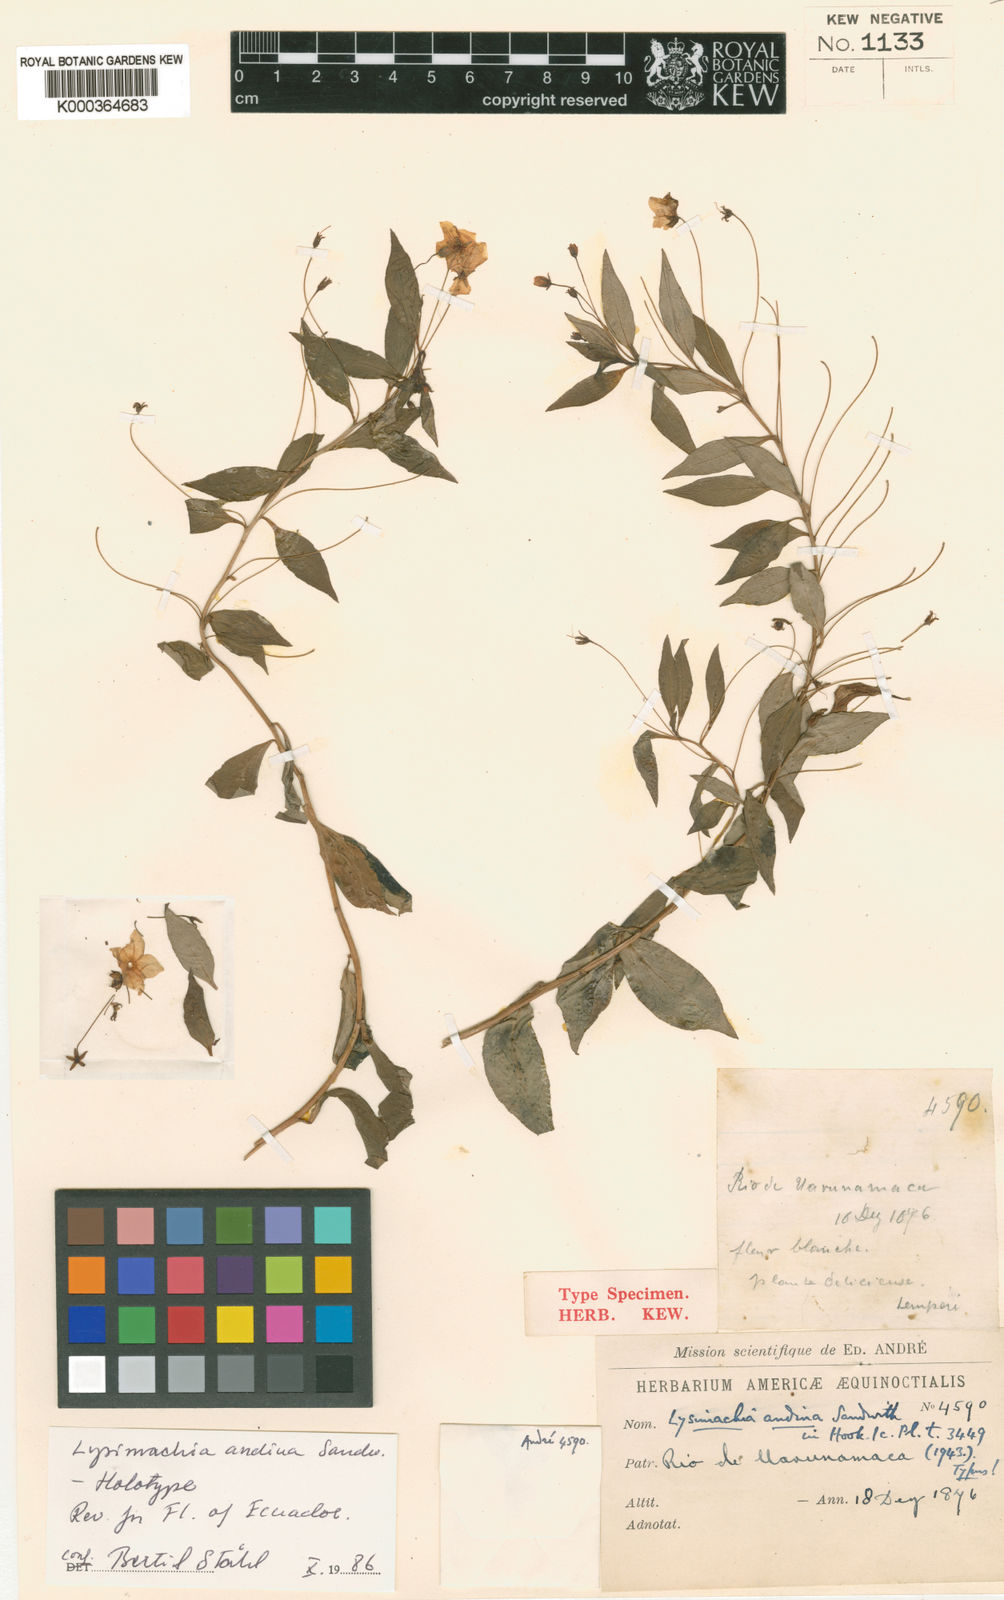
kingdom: Plantae
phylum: Tracheophyta
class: Magnoliopsida
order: Ericales
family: Primulaceae
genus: Lysimachia
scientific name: Lysimachia andina
